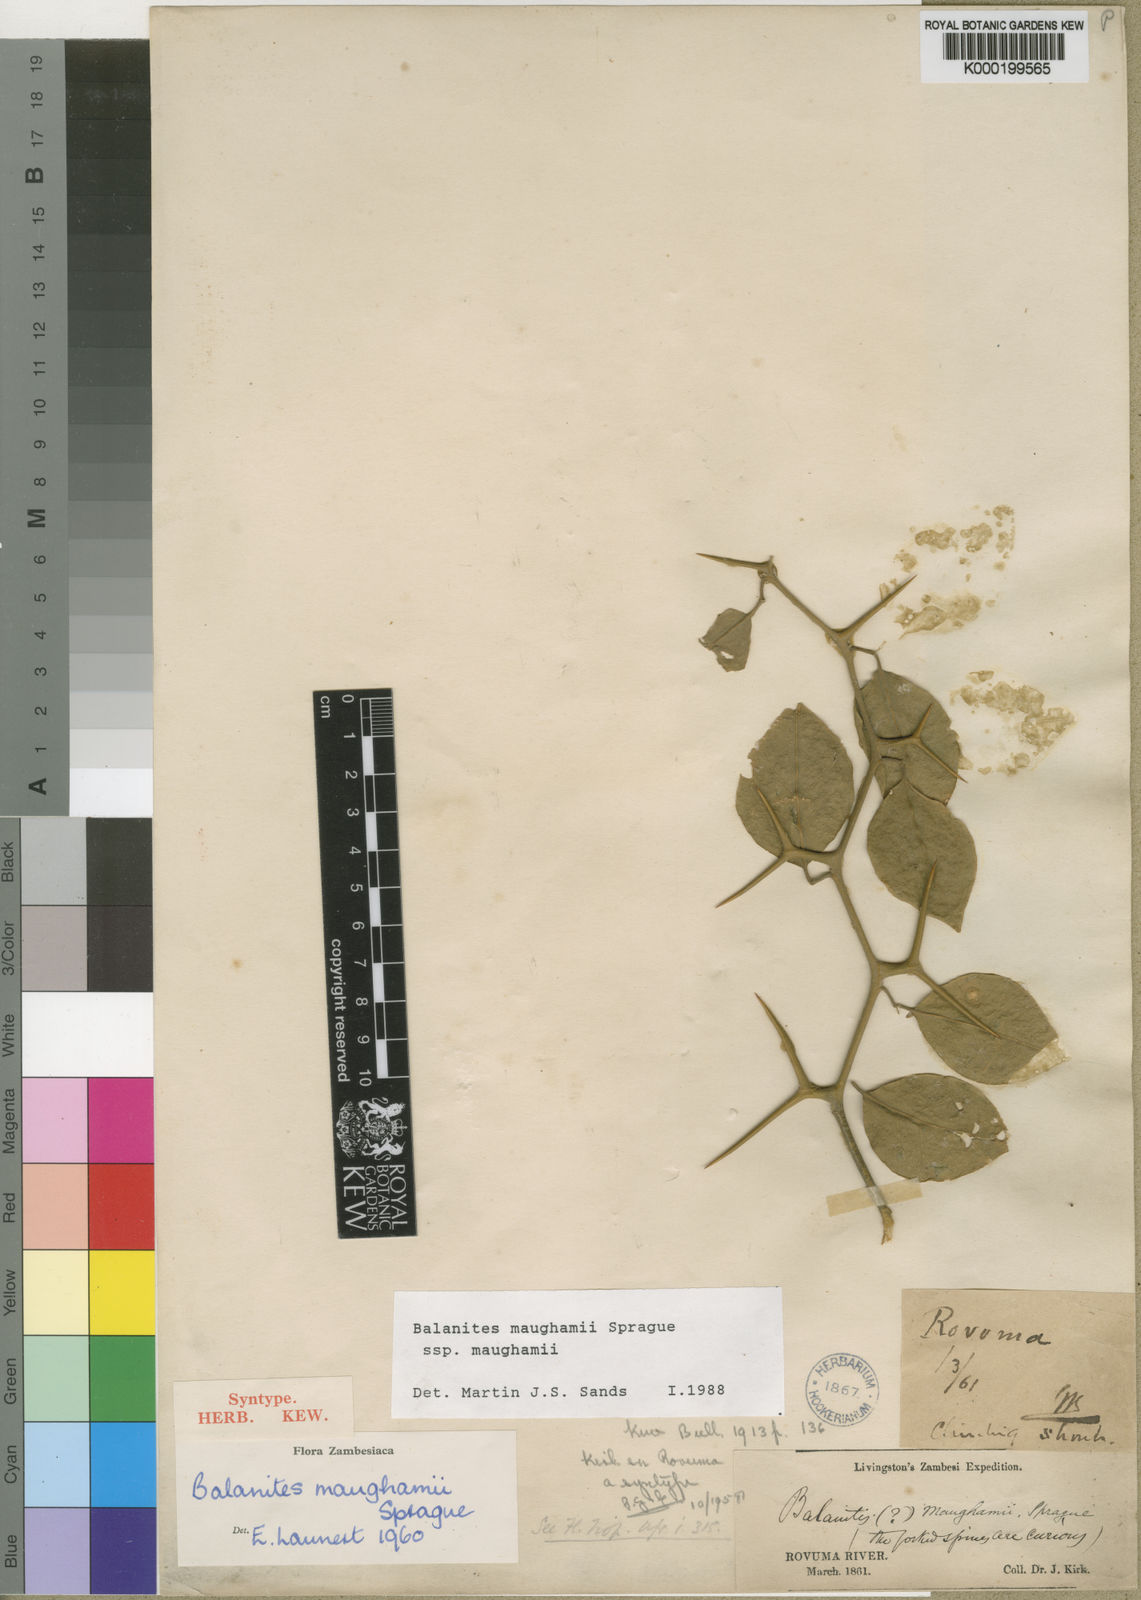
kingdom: Plantae
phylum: Tracheophyta
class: Magnoliopsida
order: Zygophyllales
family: Zygophyllaceae
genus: Balanites
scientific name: Balanites maughamii
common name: Torchwood
